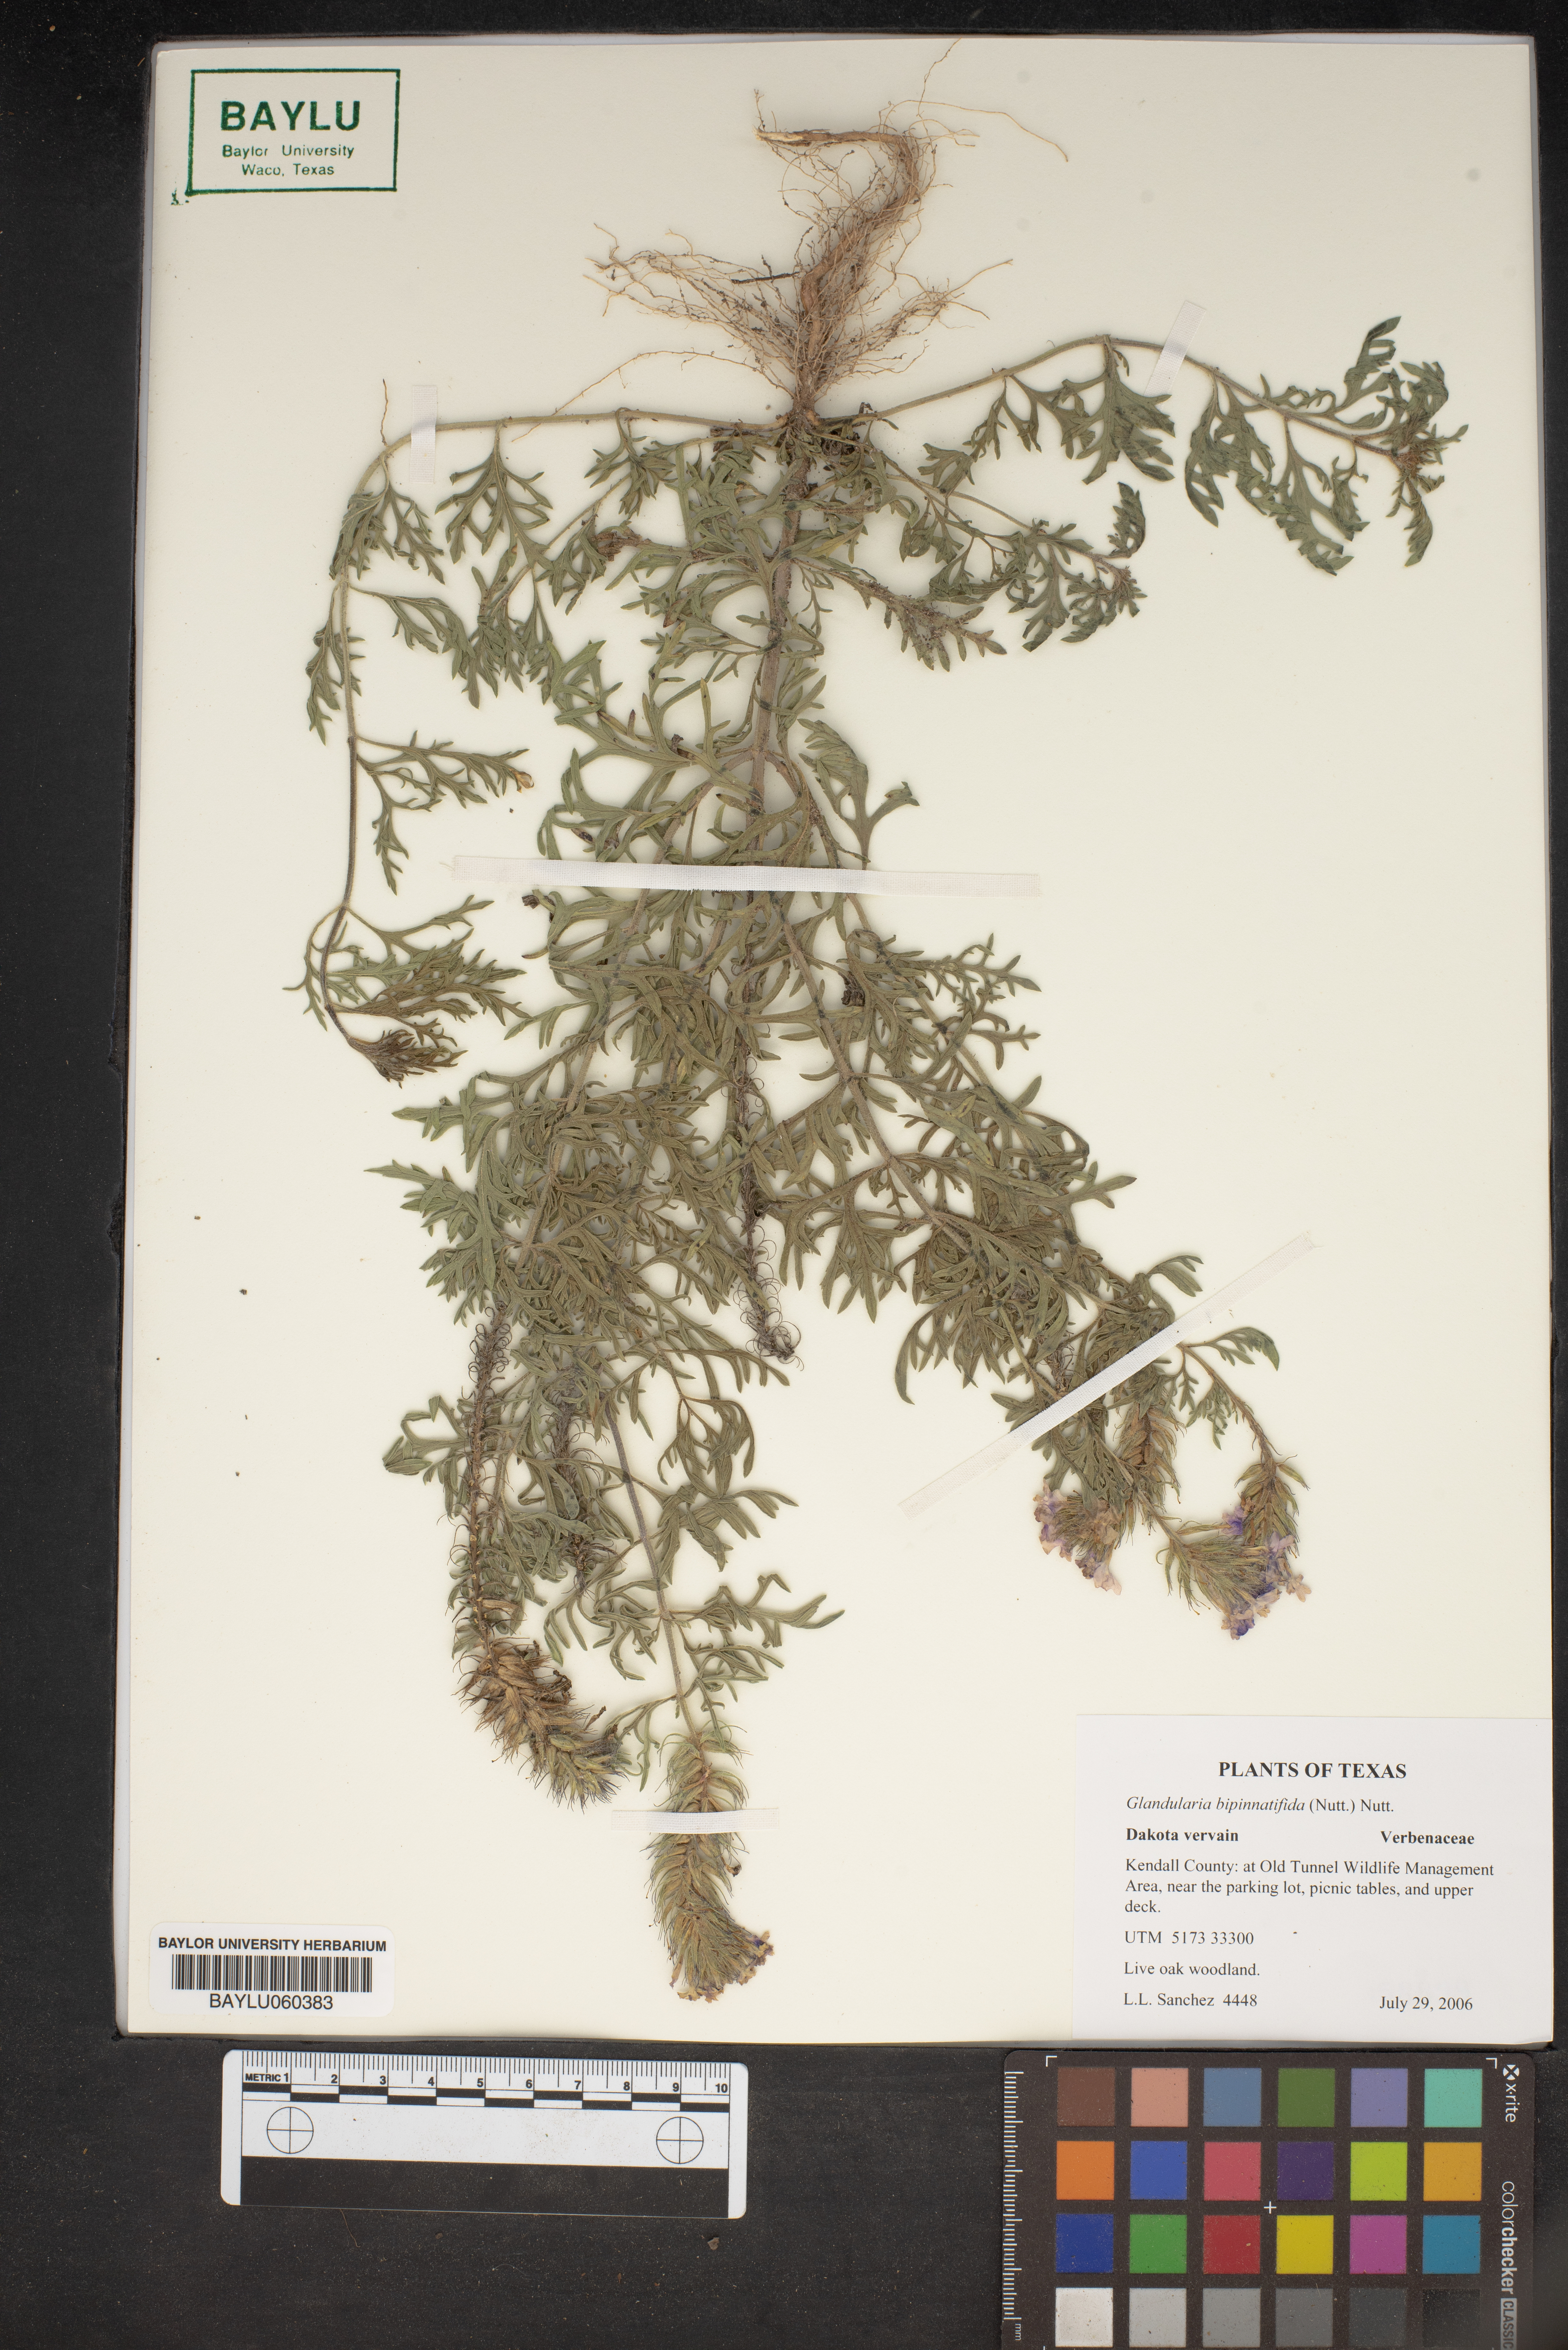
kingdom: Plantae
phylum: Tracheophyta
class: Magnoliopsida
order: Lamiales
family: Verbenaceae
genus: Verbena
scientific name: Verbena bipinnatifida
